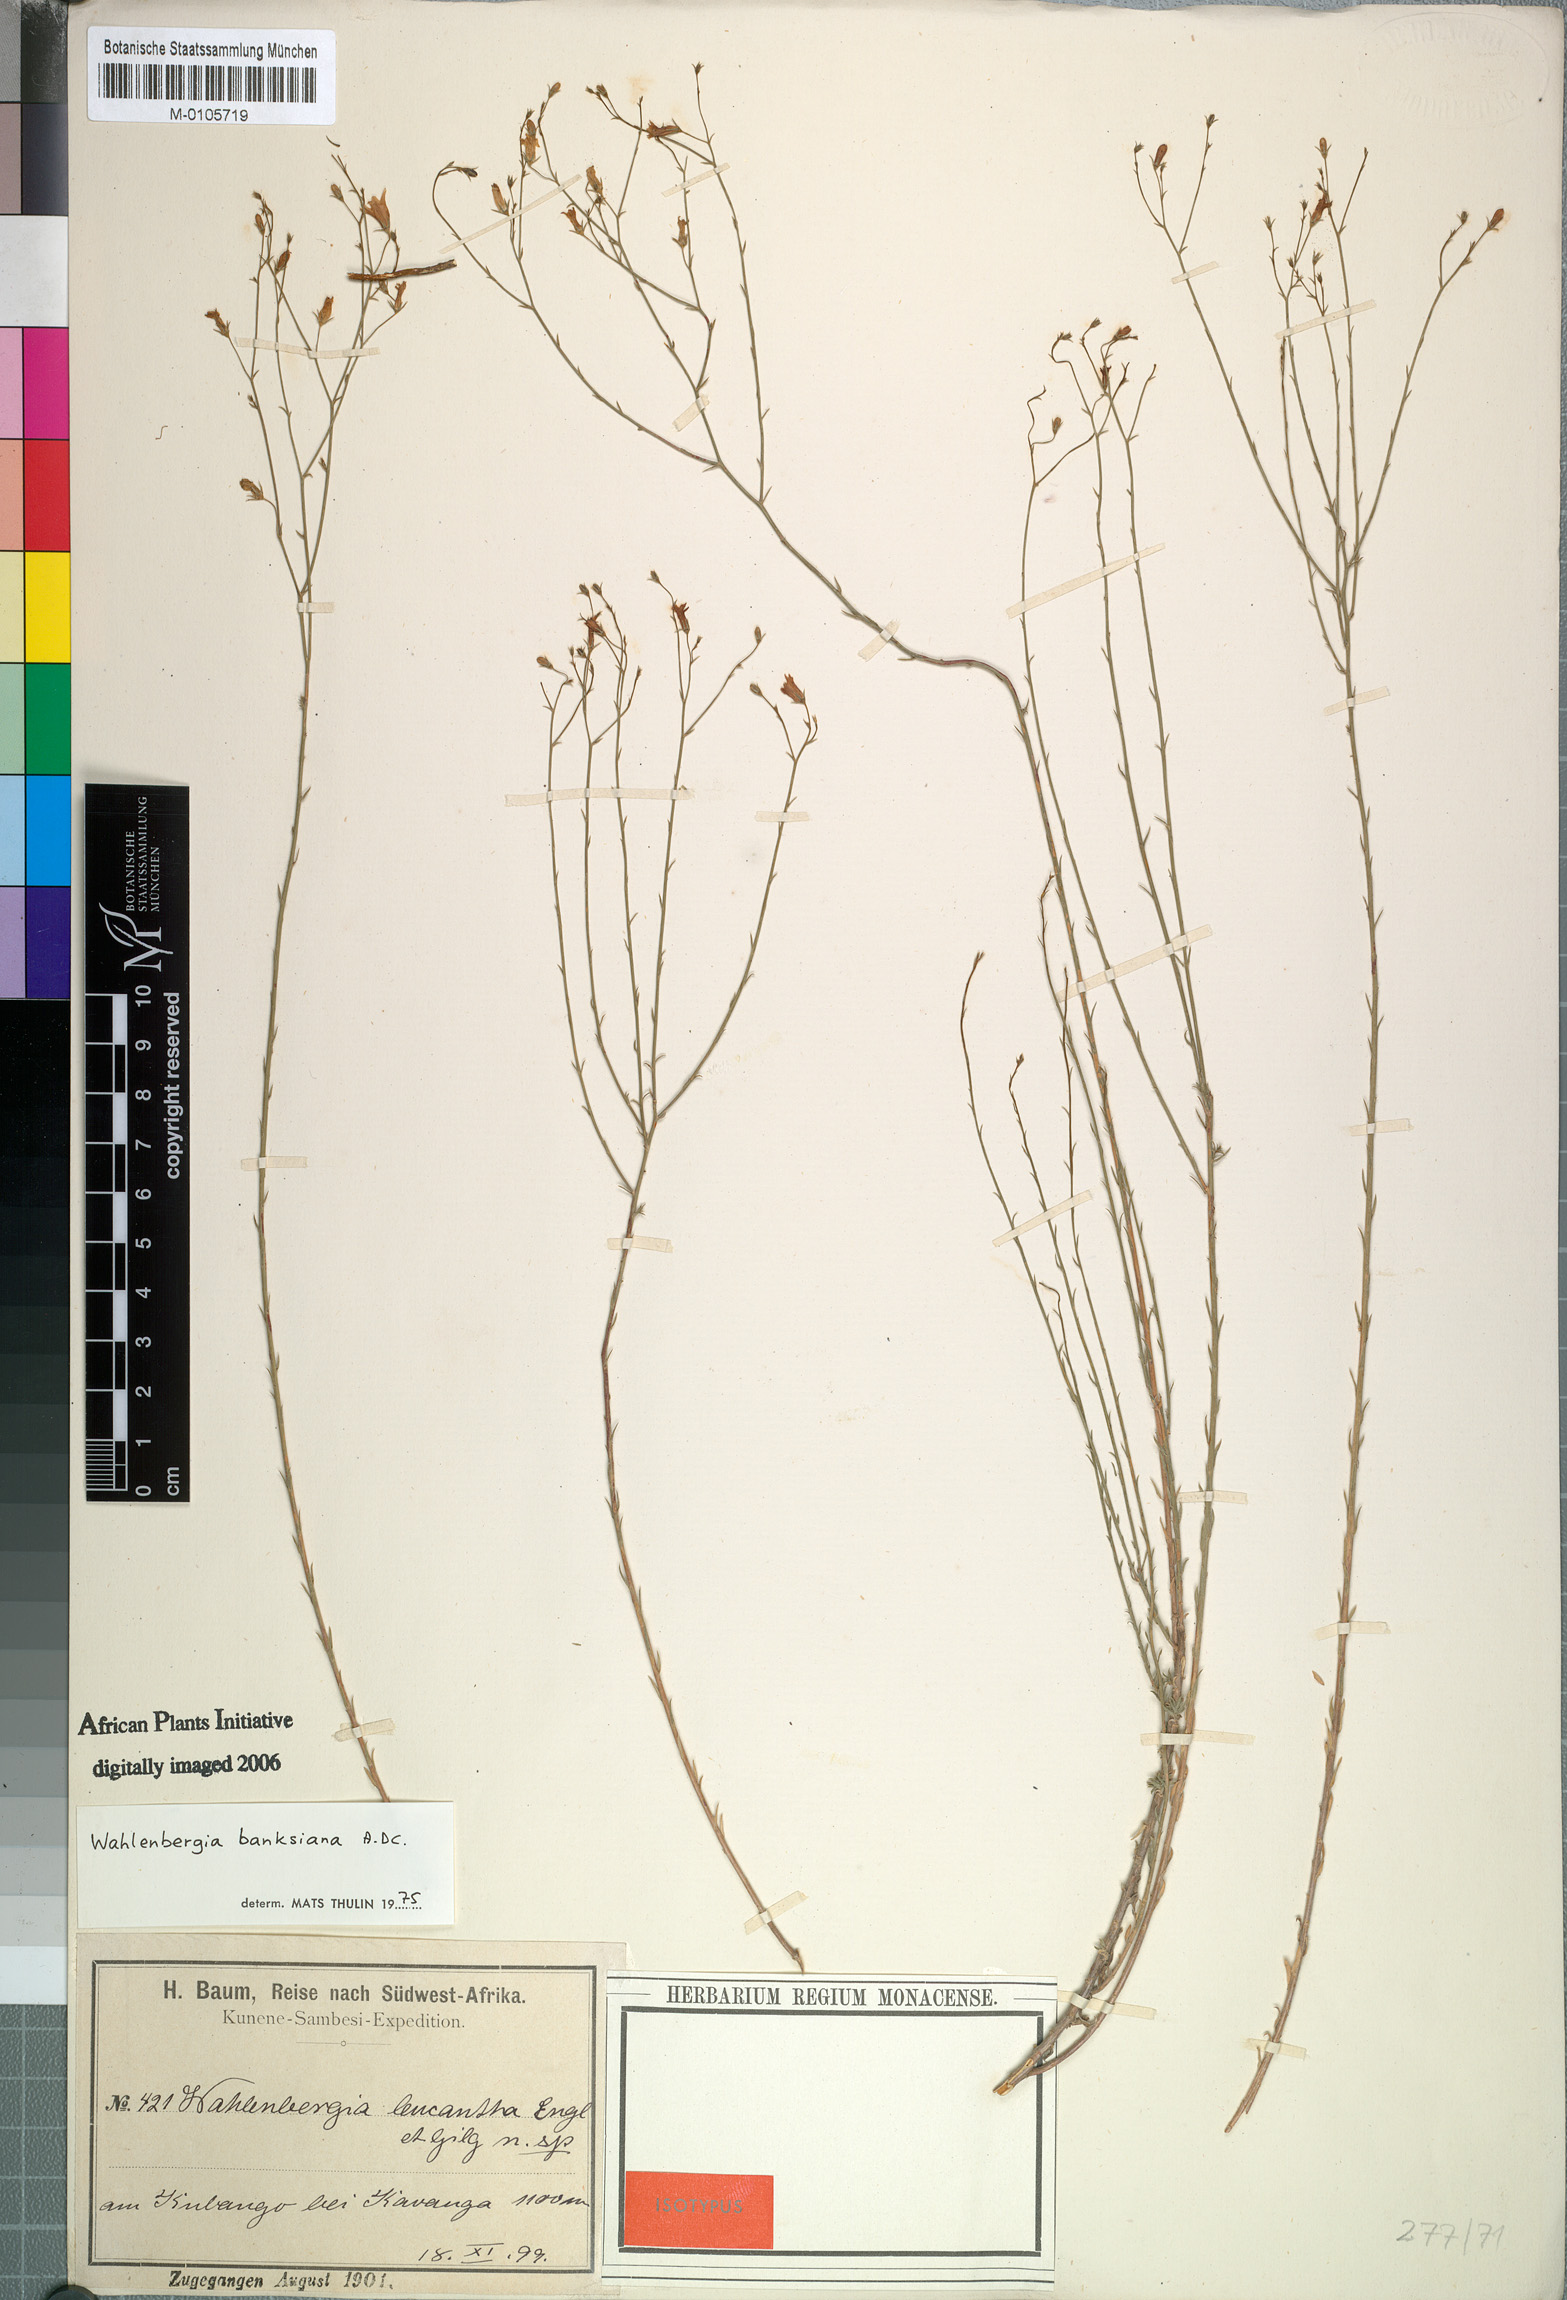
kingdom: Plantae
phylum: Tracheophyta
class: Magnoliopsida
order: Asterales
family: Campanulaceae
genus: Wahlenbergia
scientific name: Wahlenbergia banksiana
